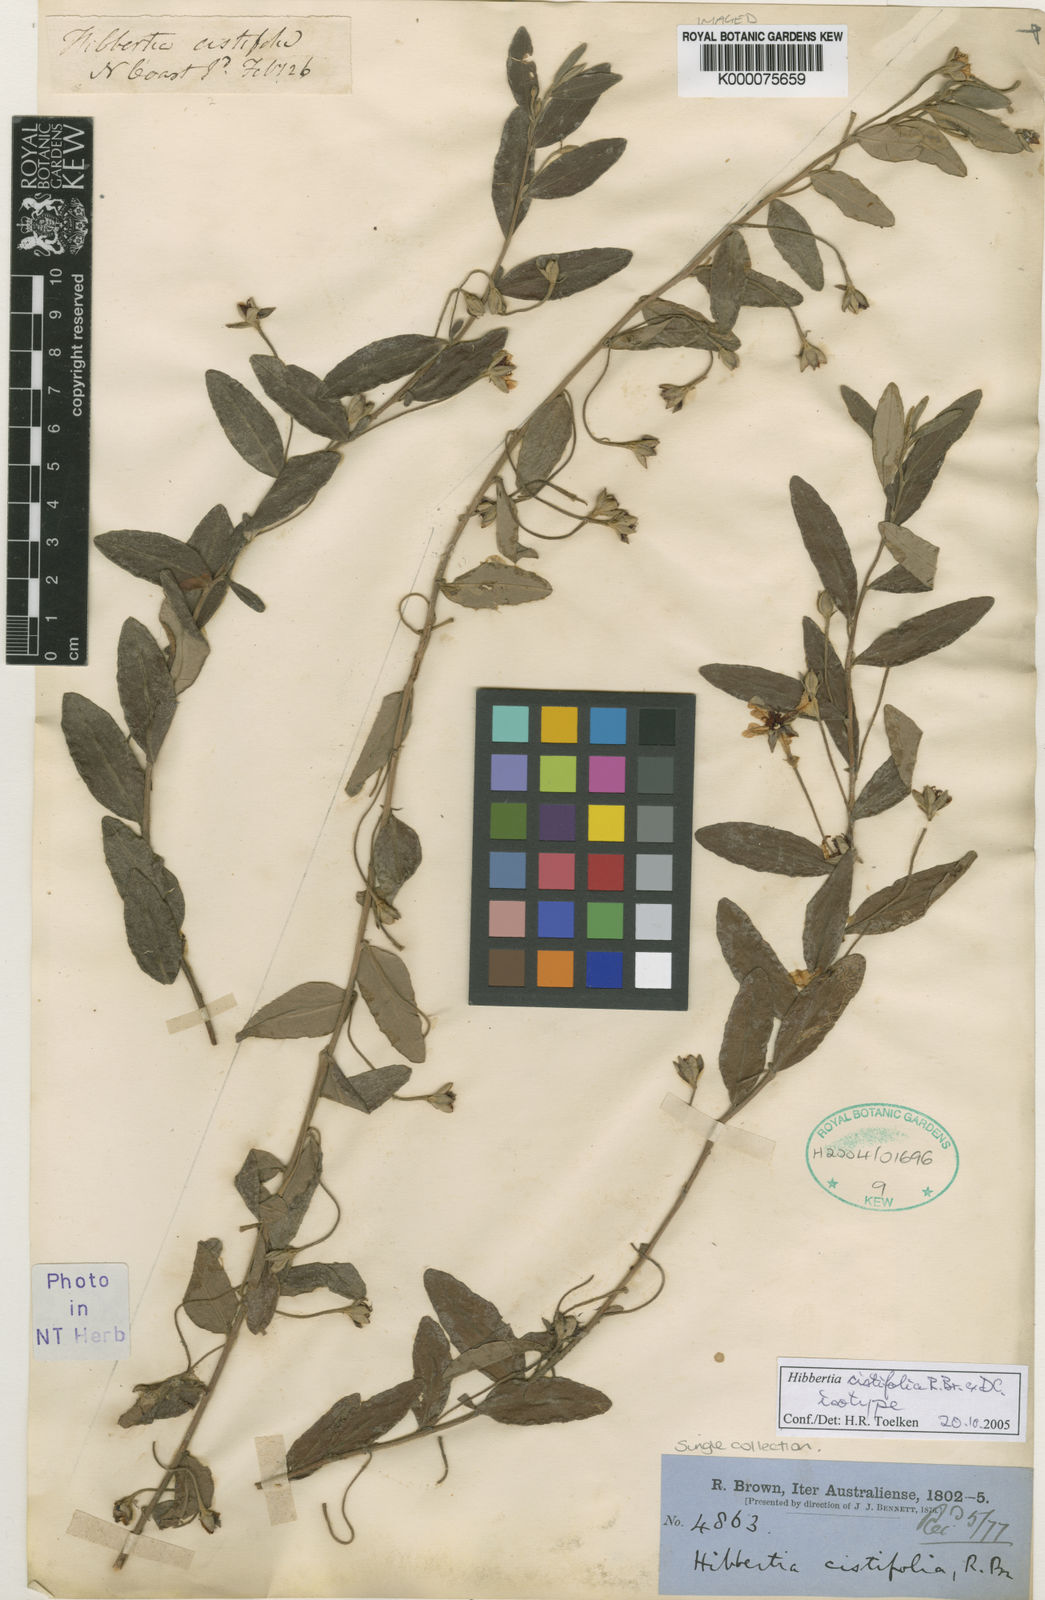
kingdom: Plantae
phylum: Tracheophyta
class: Magnoliopsida
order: Dilleniales
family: Dilleniaceae
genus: Hibbertia
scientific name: Hibbertia
